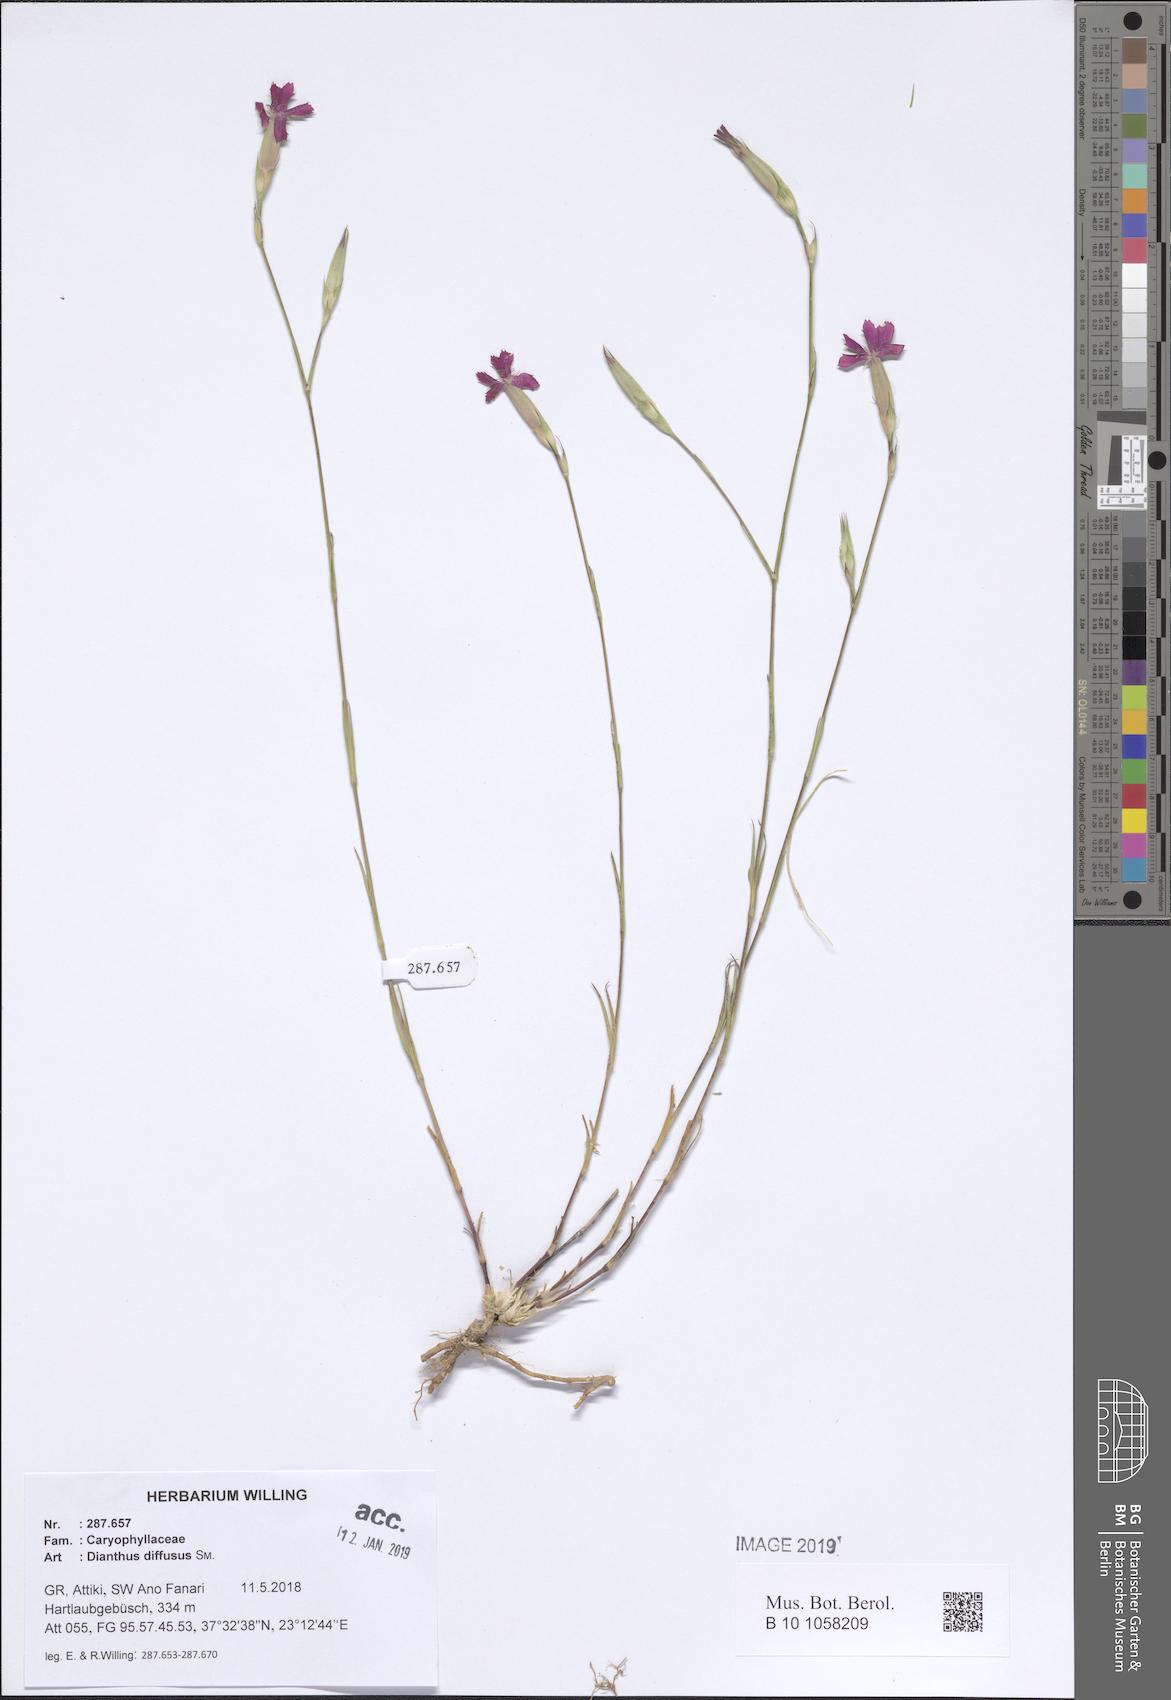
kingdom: Plantae
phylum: Tracheophyta
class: Magnoliopsida
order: Caryophyllales
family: Caryophyllaceae
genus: Dianthus
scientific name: Dianthus diffusus
